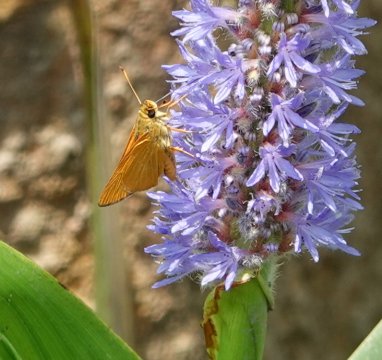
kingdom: Animalia
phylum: Arthropoda
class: Insecta
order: Lepidoptera
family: Hesperiidae
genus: Problema
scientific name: Problema bulenta
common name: Rare Skipper
